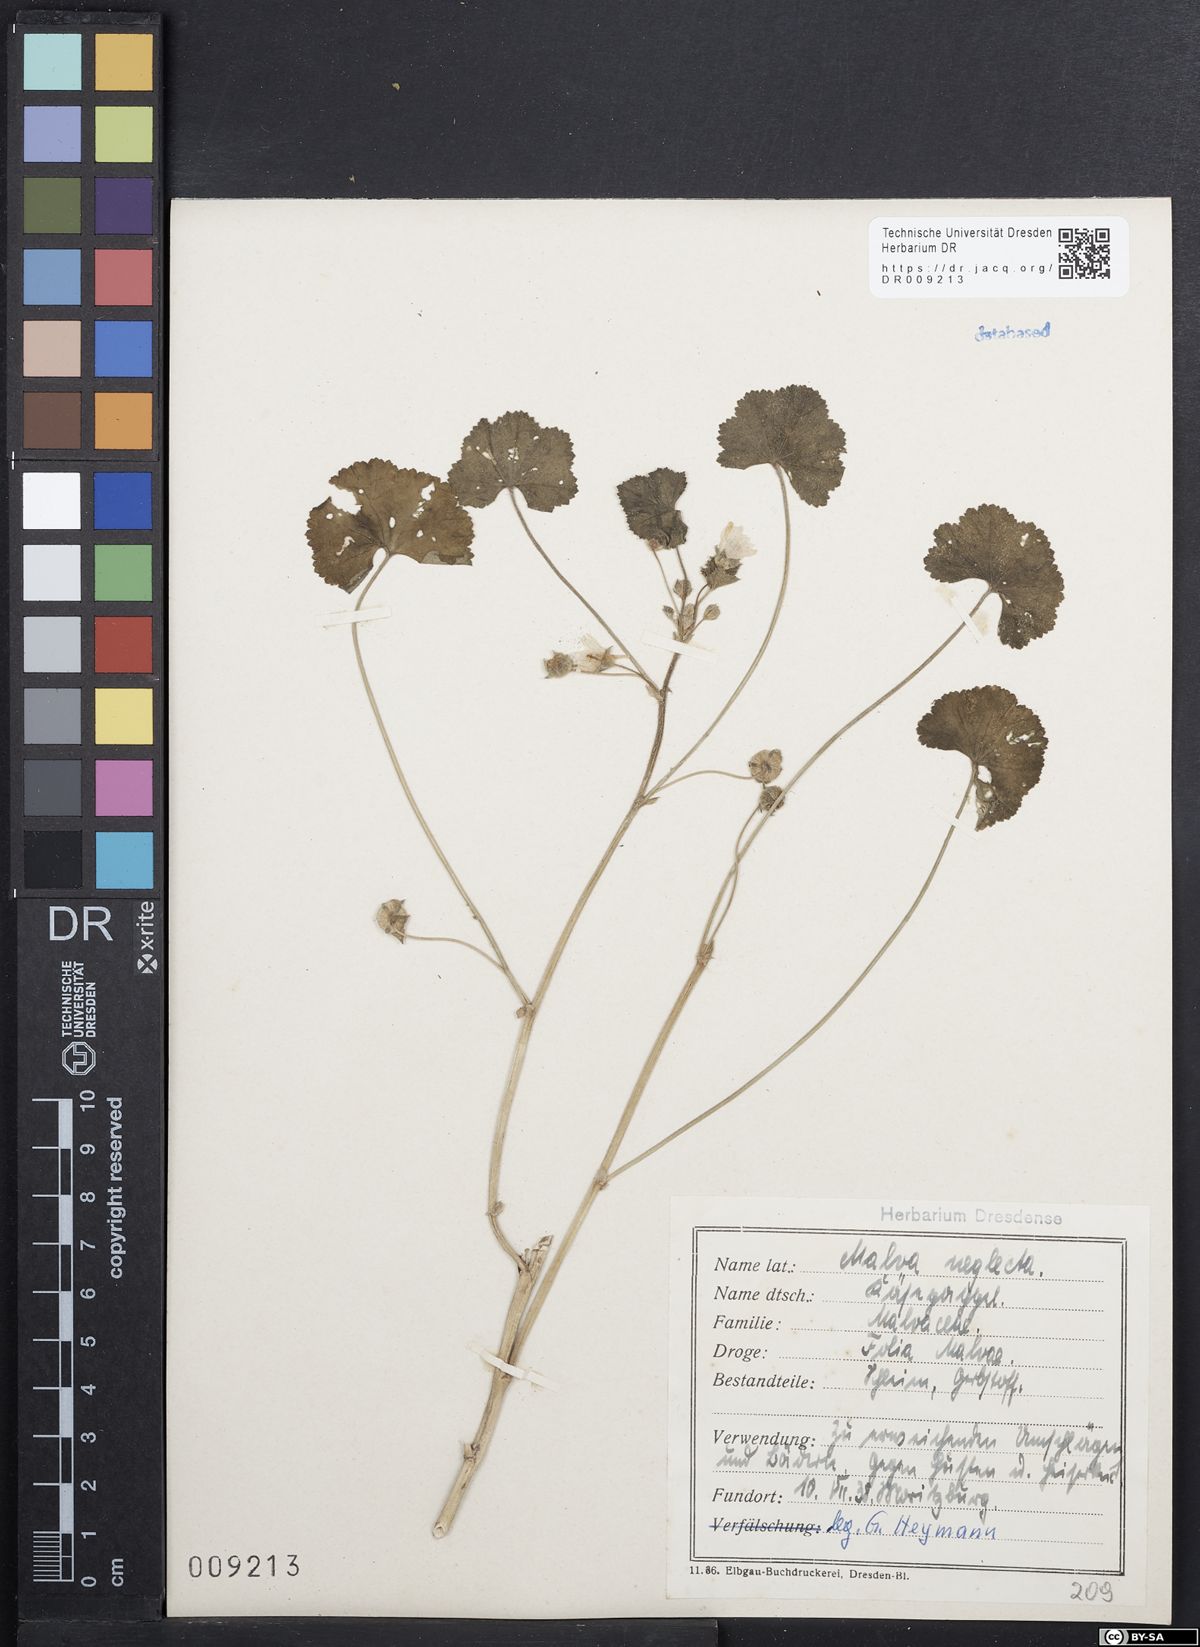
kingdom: Plantae
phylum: Tracheophyta
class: Magnoliopsida
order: Malvales
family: Malvaceae
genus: Malva
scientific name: Malva neglecta
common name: Common mallow
